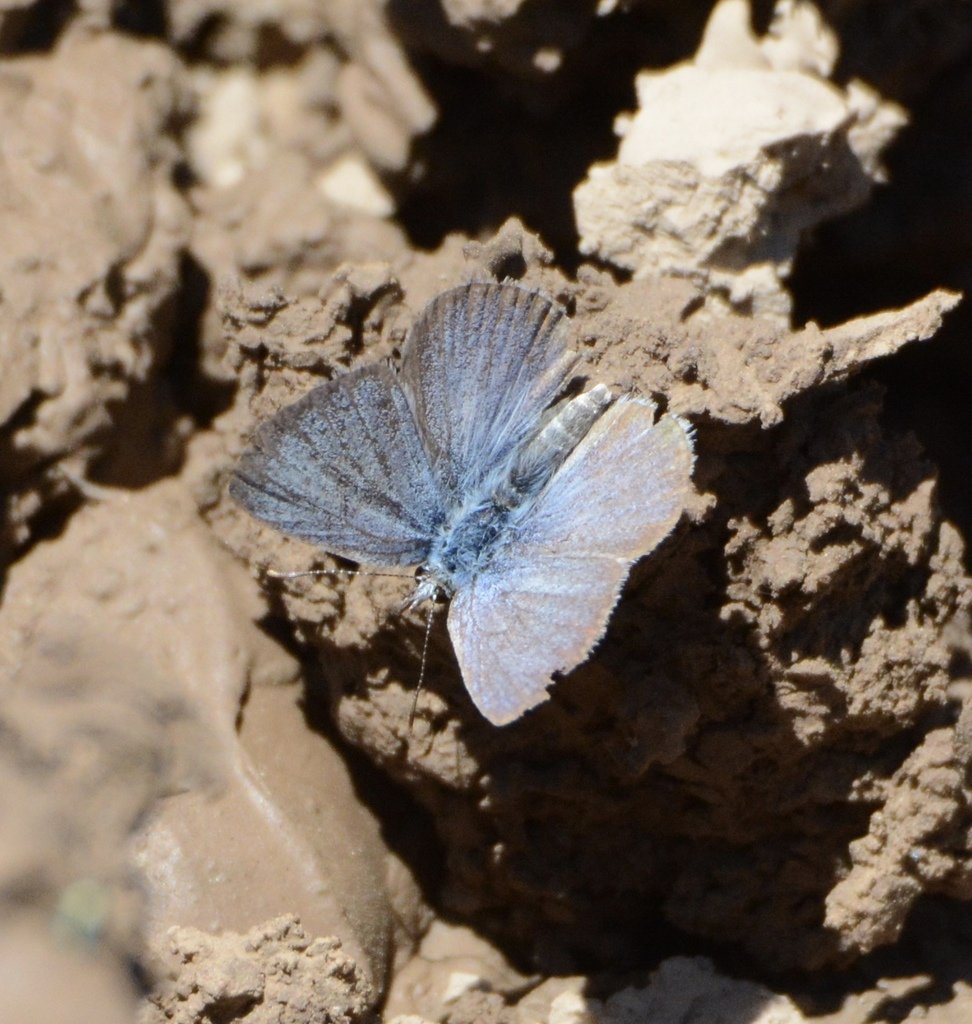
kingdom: Animalia
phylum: Arthropoda
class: Insecta
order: Lepidoptera
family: Lycaenidae
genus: Glaucopsyche
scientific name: Glaucopsyche lygdamus
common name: Silvery Blue
